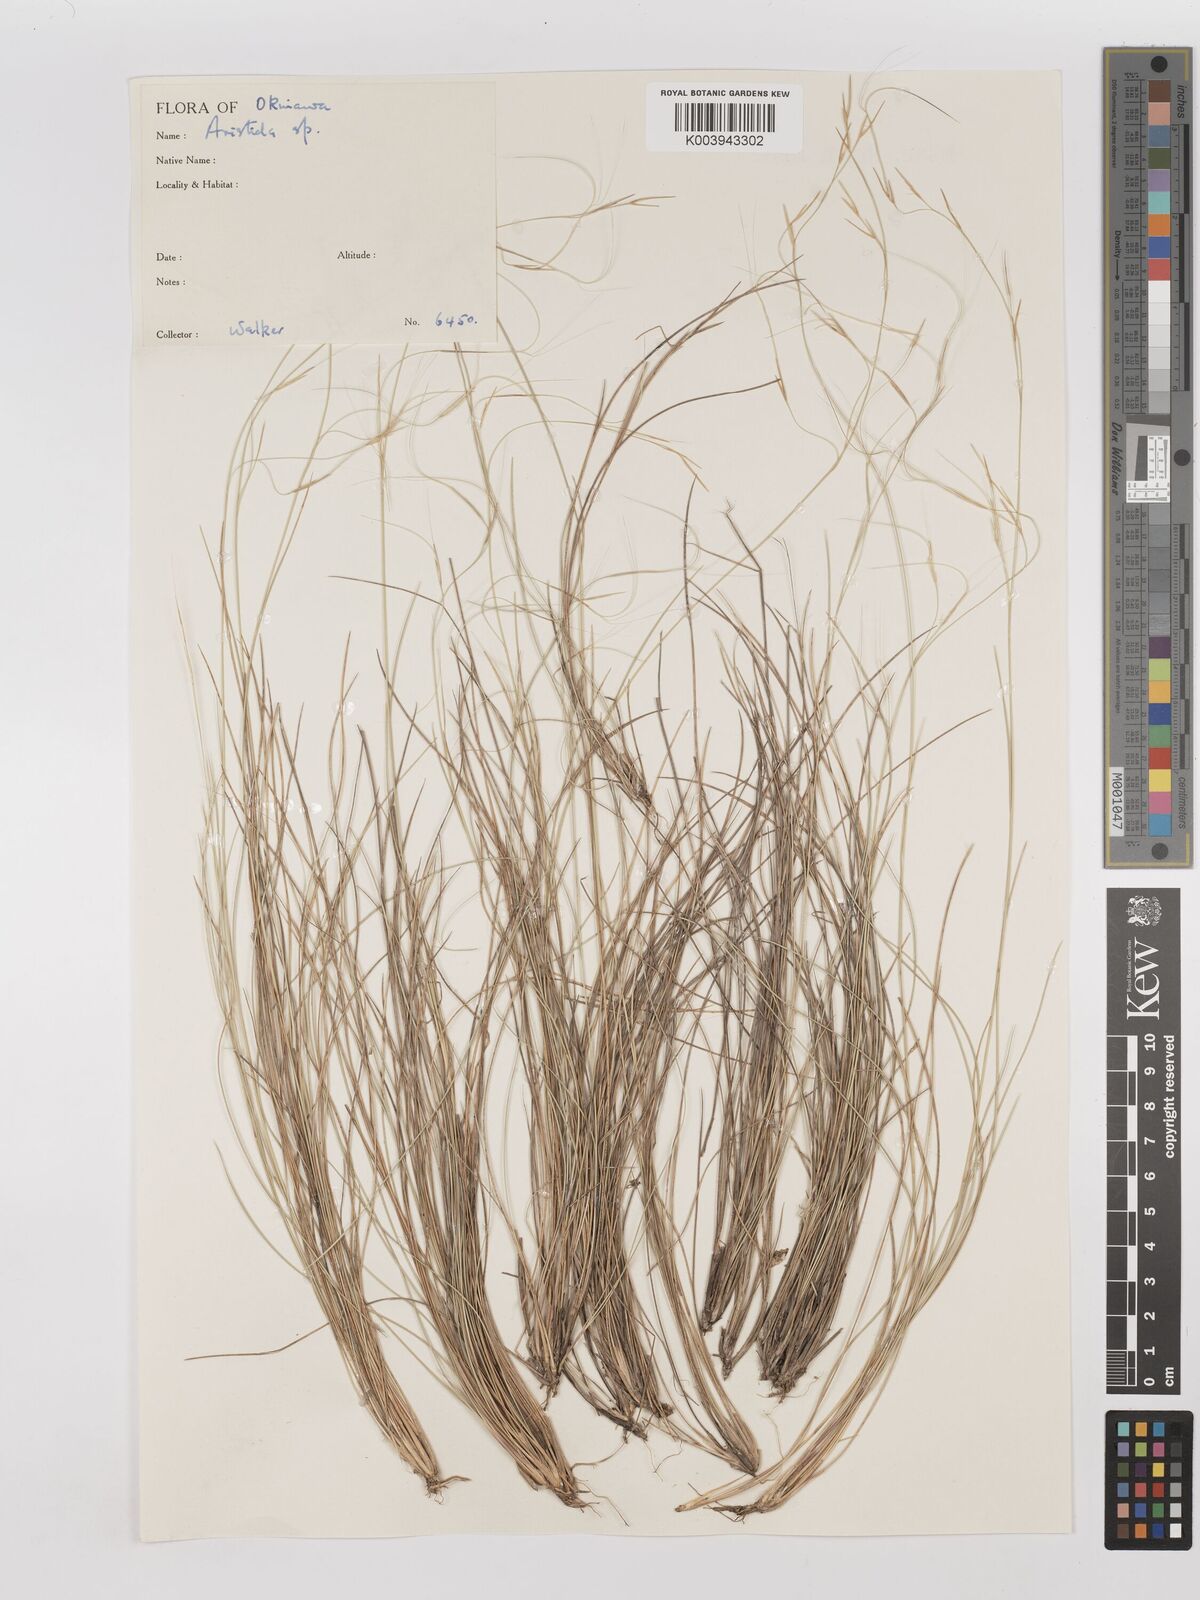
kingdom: Plantae
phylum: Tracheophyta
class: Liliopsida
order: Poales
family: Poaceae
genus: Aristida
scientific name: Aristida takeoi
